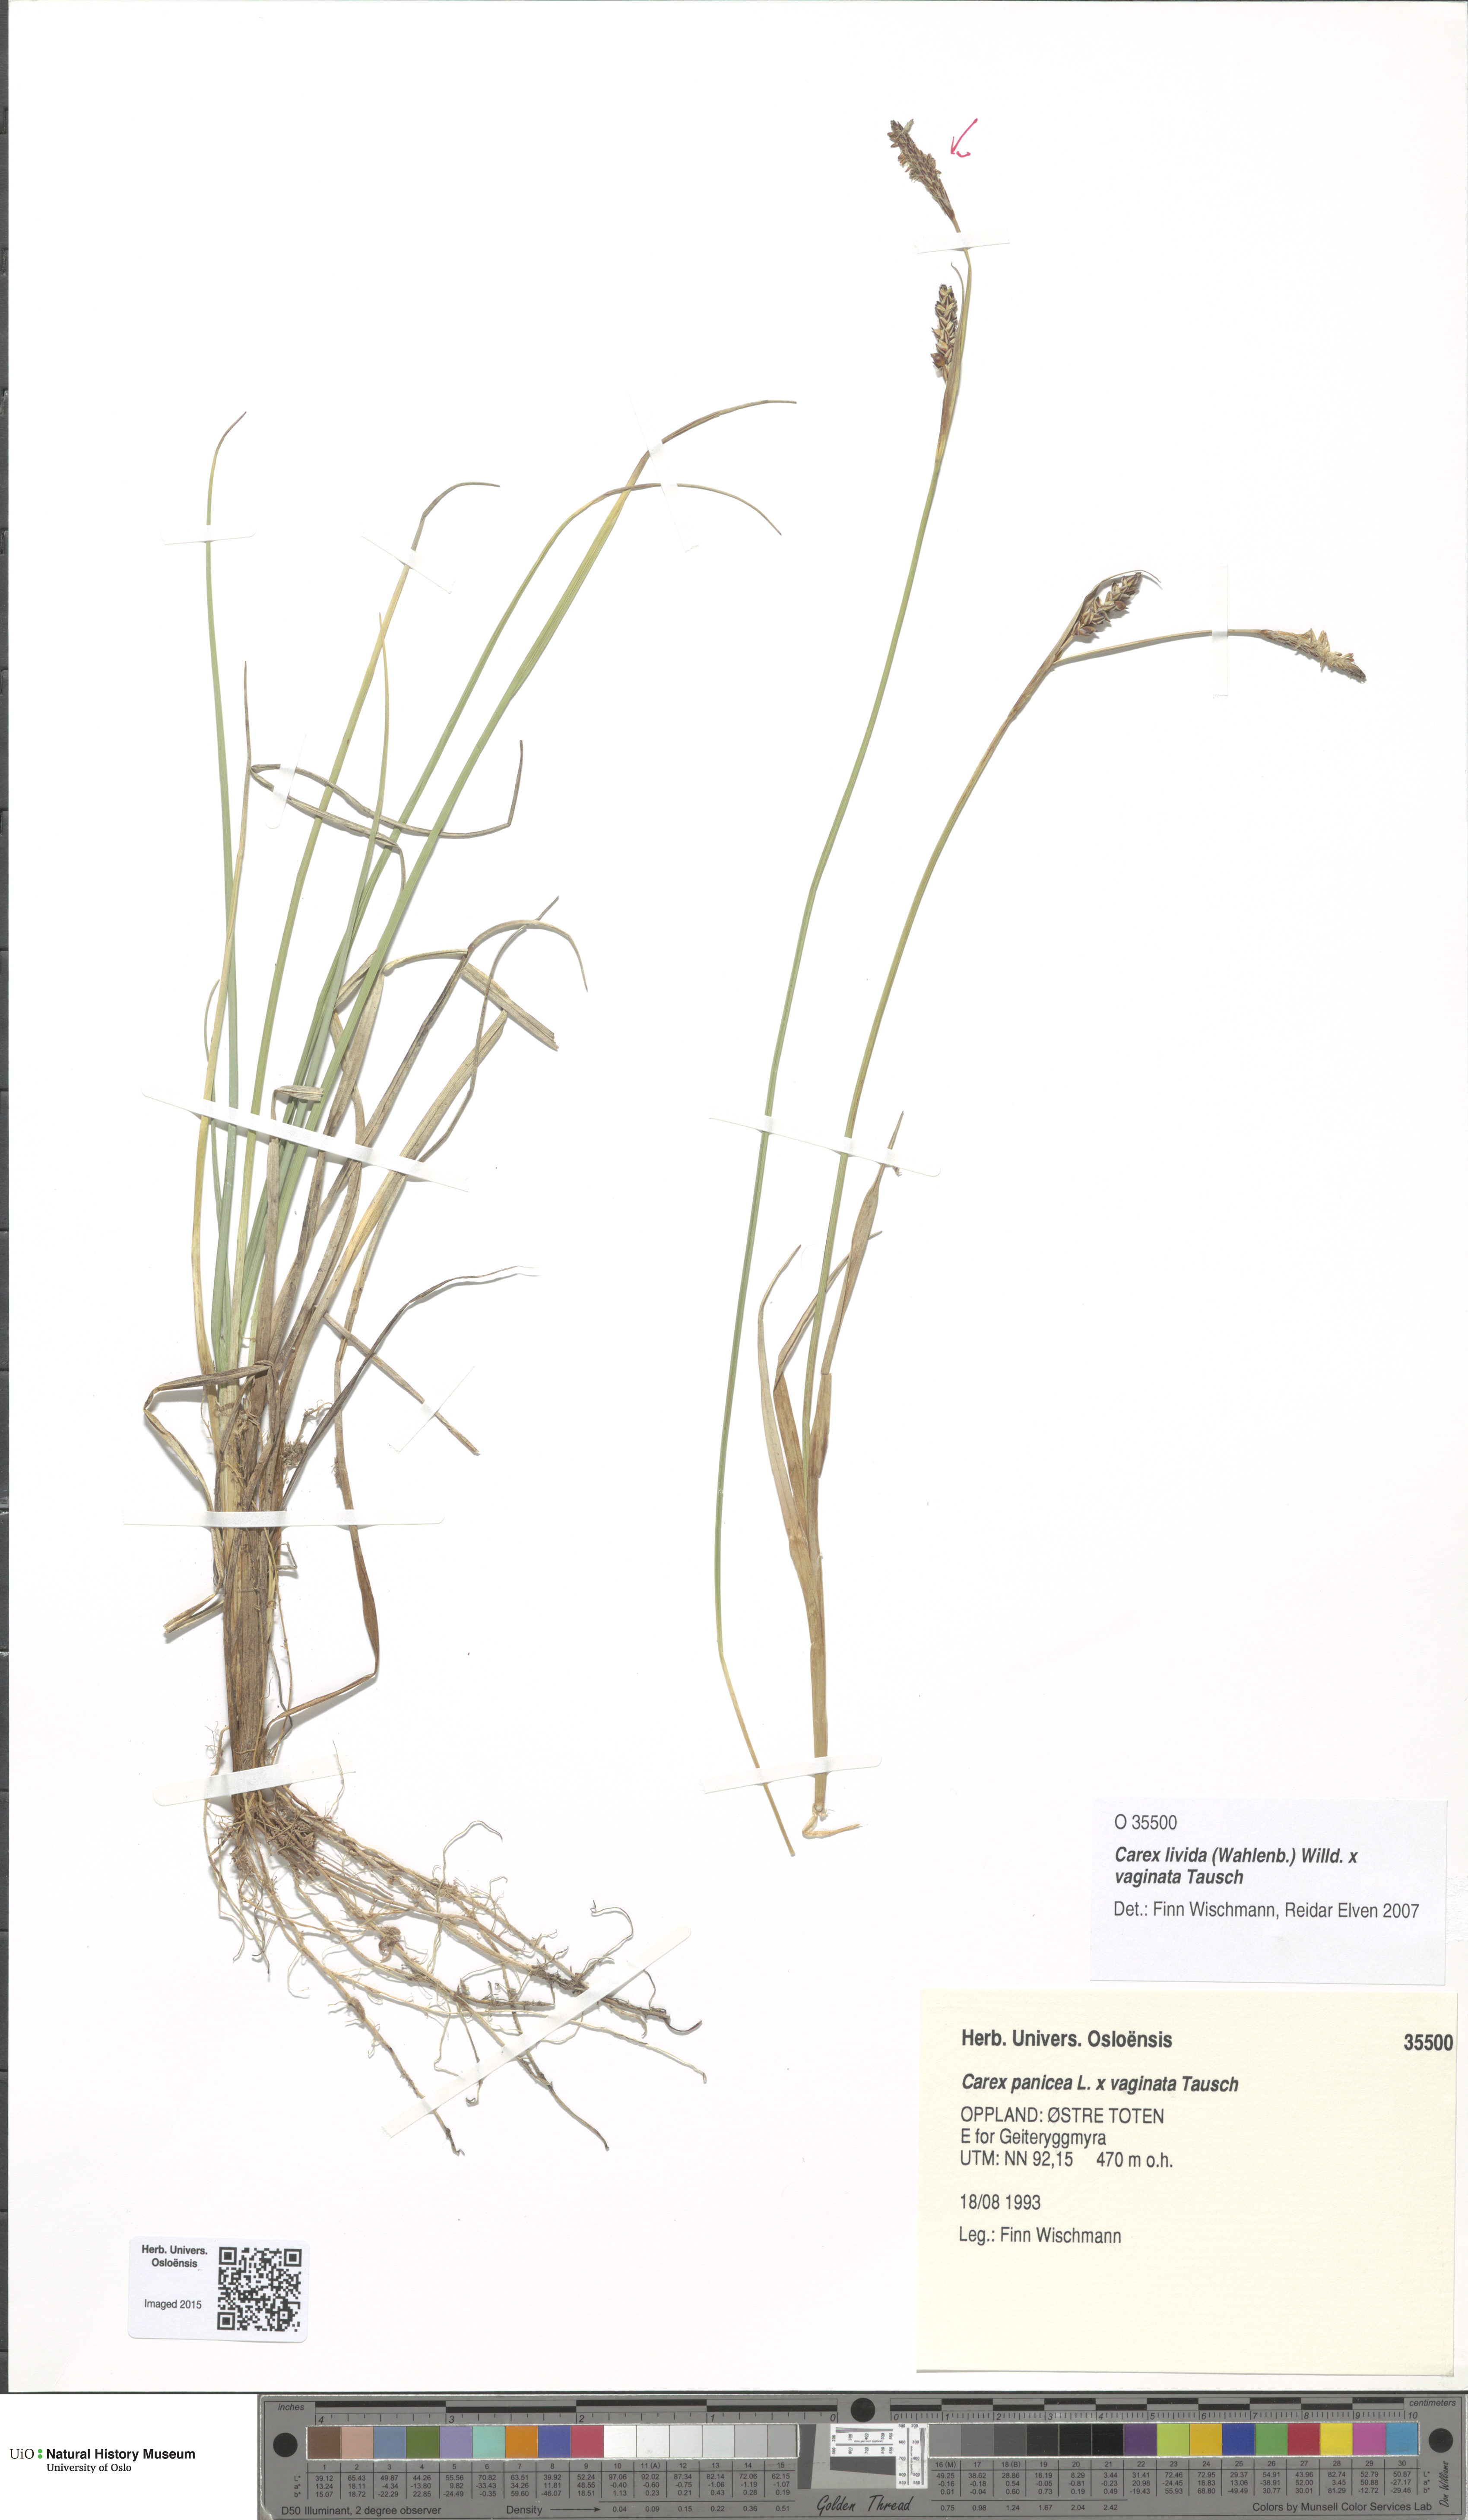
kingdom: Plantae
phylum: Tracheophyta
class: Liliopsida
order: Poales
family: Cyperaceae
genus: Carex
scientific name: Carex
